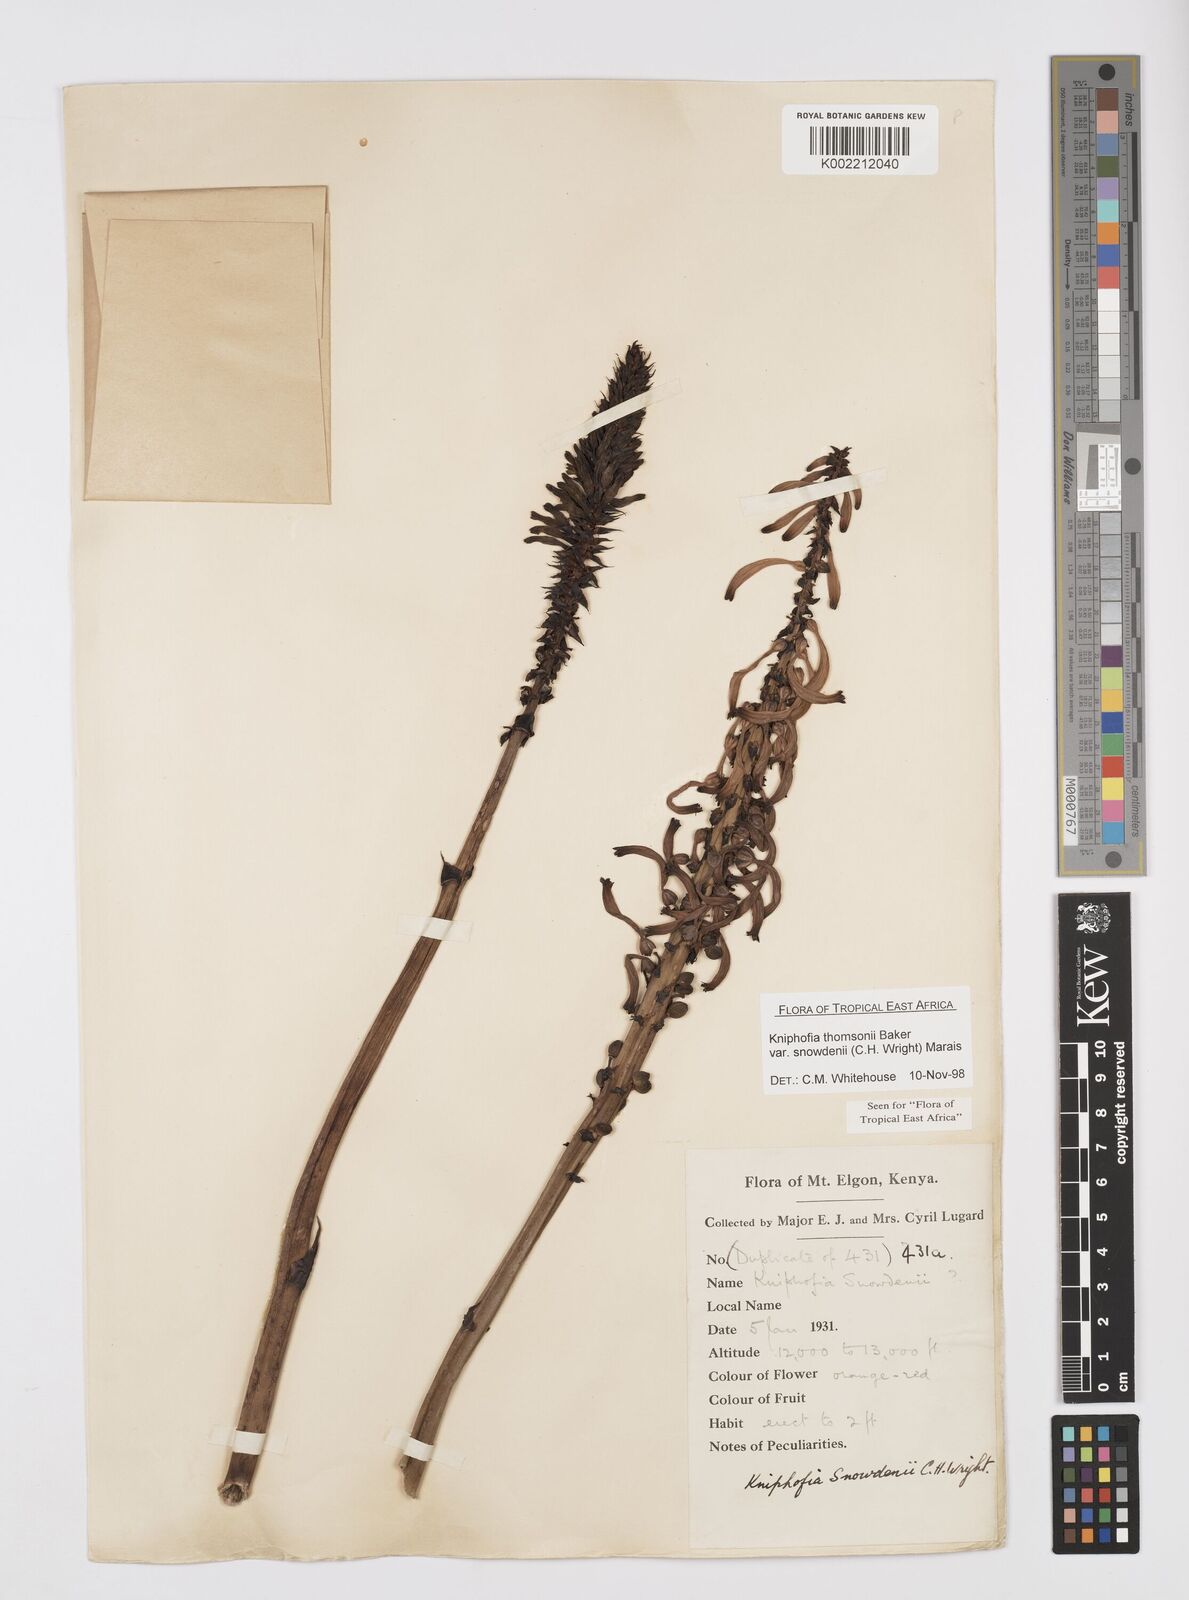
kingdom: Plantae
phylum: Tracheophyta
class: Liliopsida
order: Asparagales
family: Asphodelaceae
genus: Kniphofia
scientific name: Kniphofia
